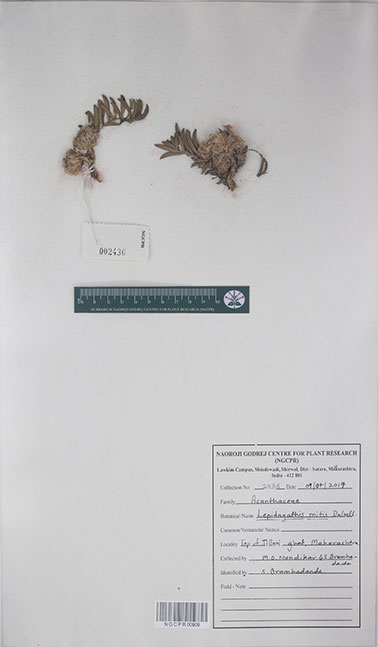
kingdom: Plantae
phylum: Tracheophyta
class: Magnoliopsida
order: Lamiales
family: Acanthaceae
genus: Lepidagathis
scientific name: Lepidagathis mitis
